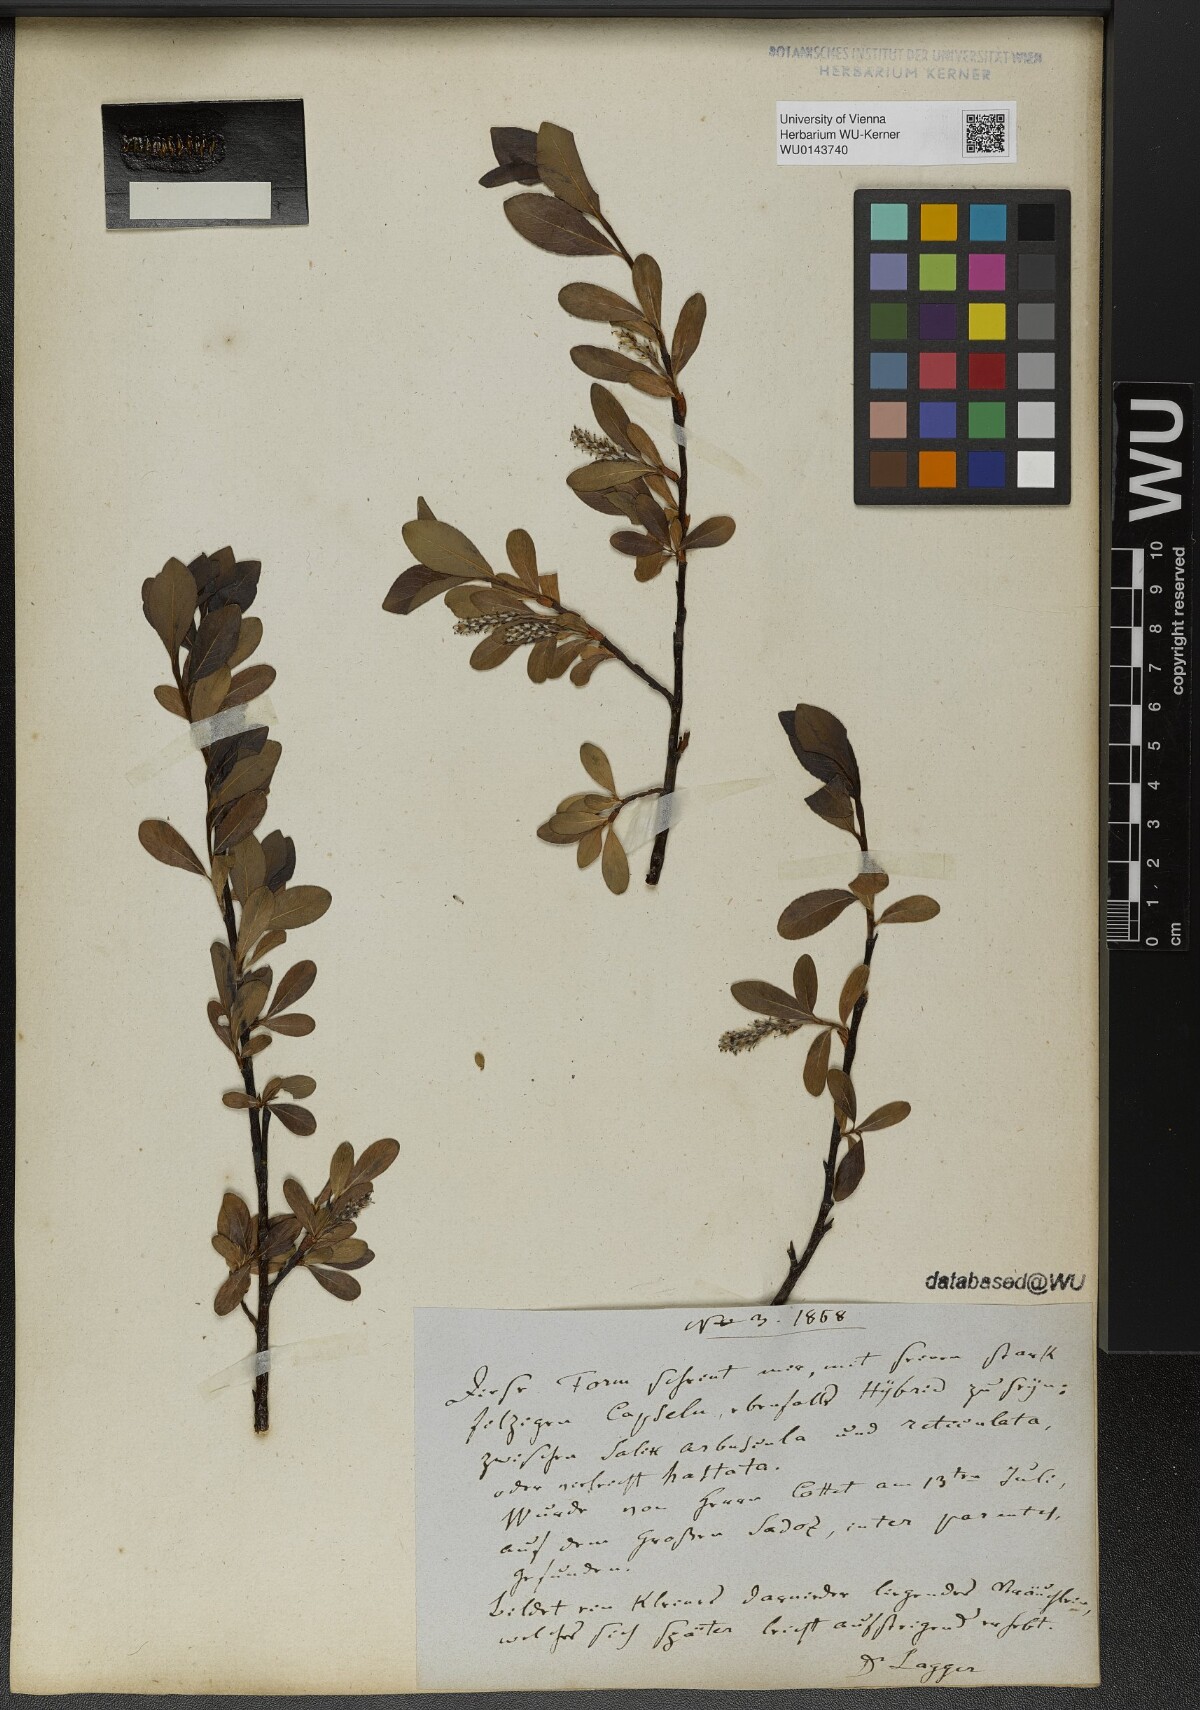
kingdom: Plantae
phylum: Tracheophyta
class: Magnoliopsida
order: Malpighiales
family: Salicaceae
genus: Salix
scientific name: Salix
